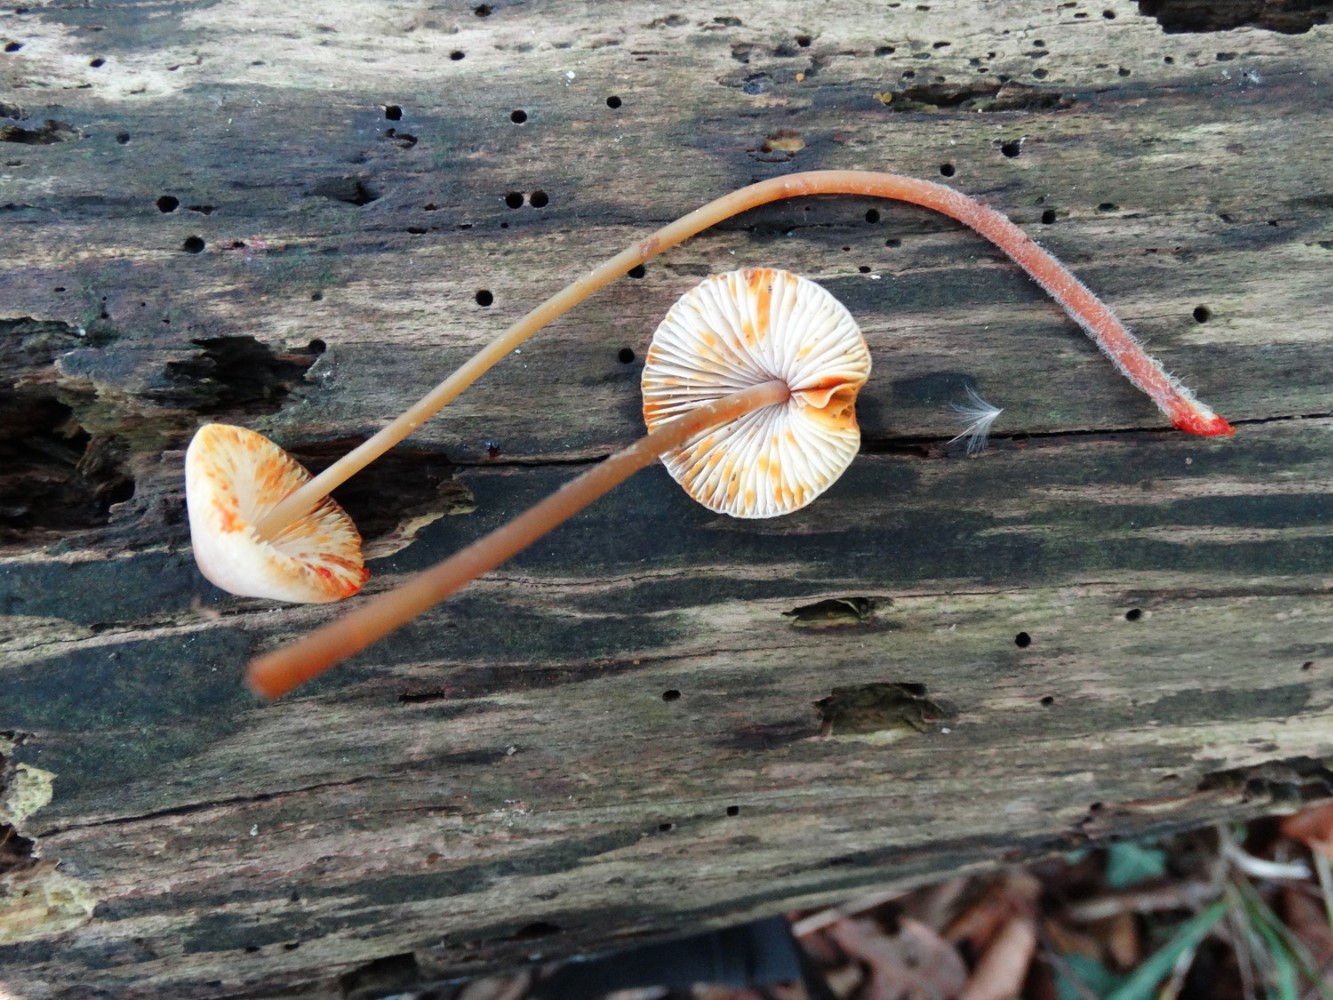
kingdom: Fungi
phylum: Basidiomycota
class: Agaricomycetes
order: Agaricales
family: Mycenaceae
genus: Mycena
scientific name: Mycena crocata
